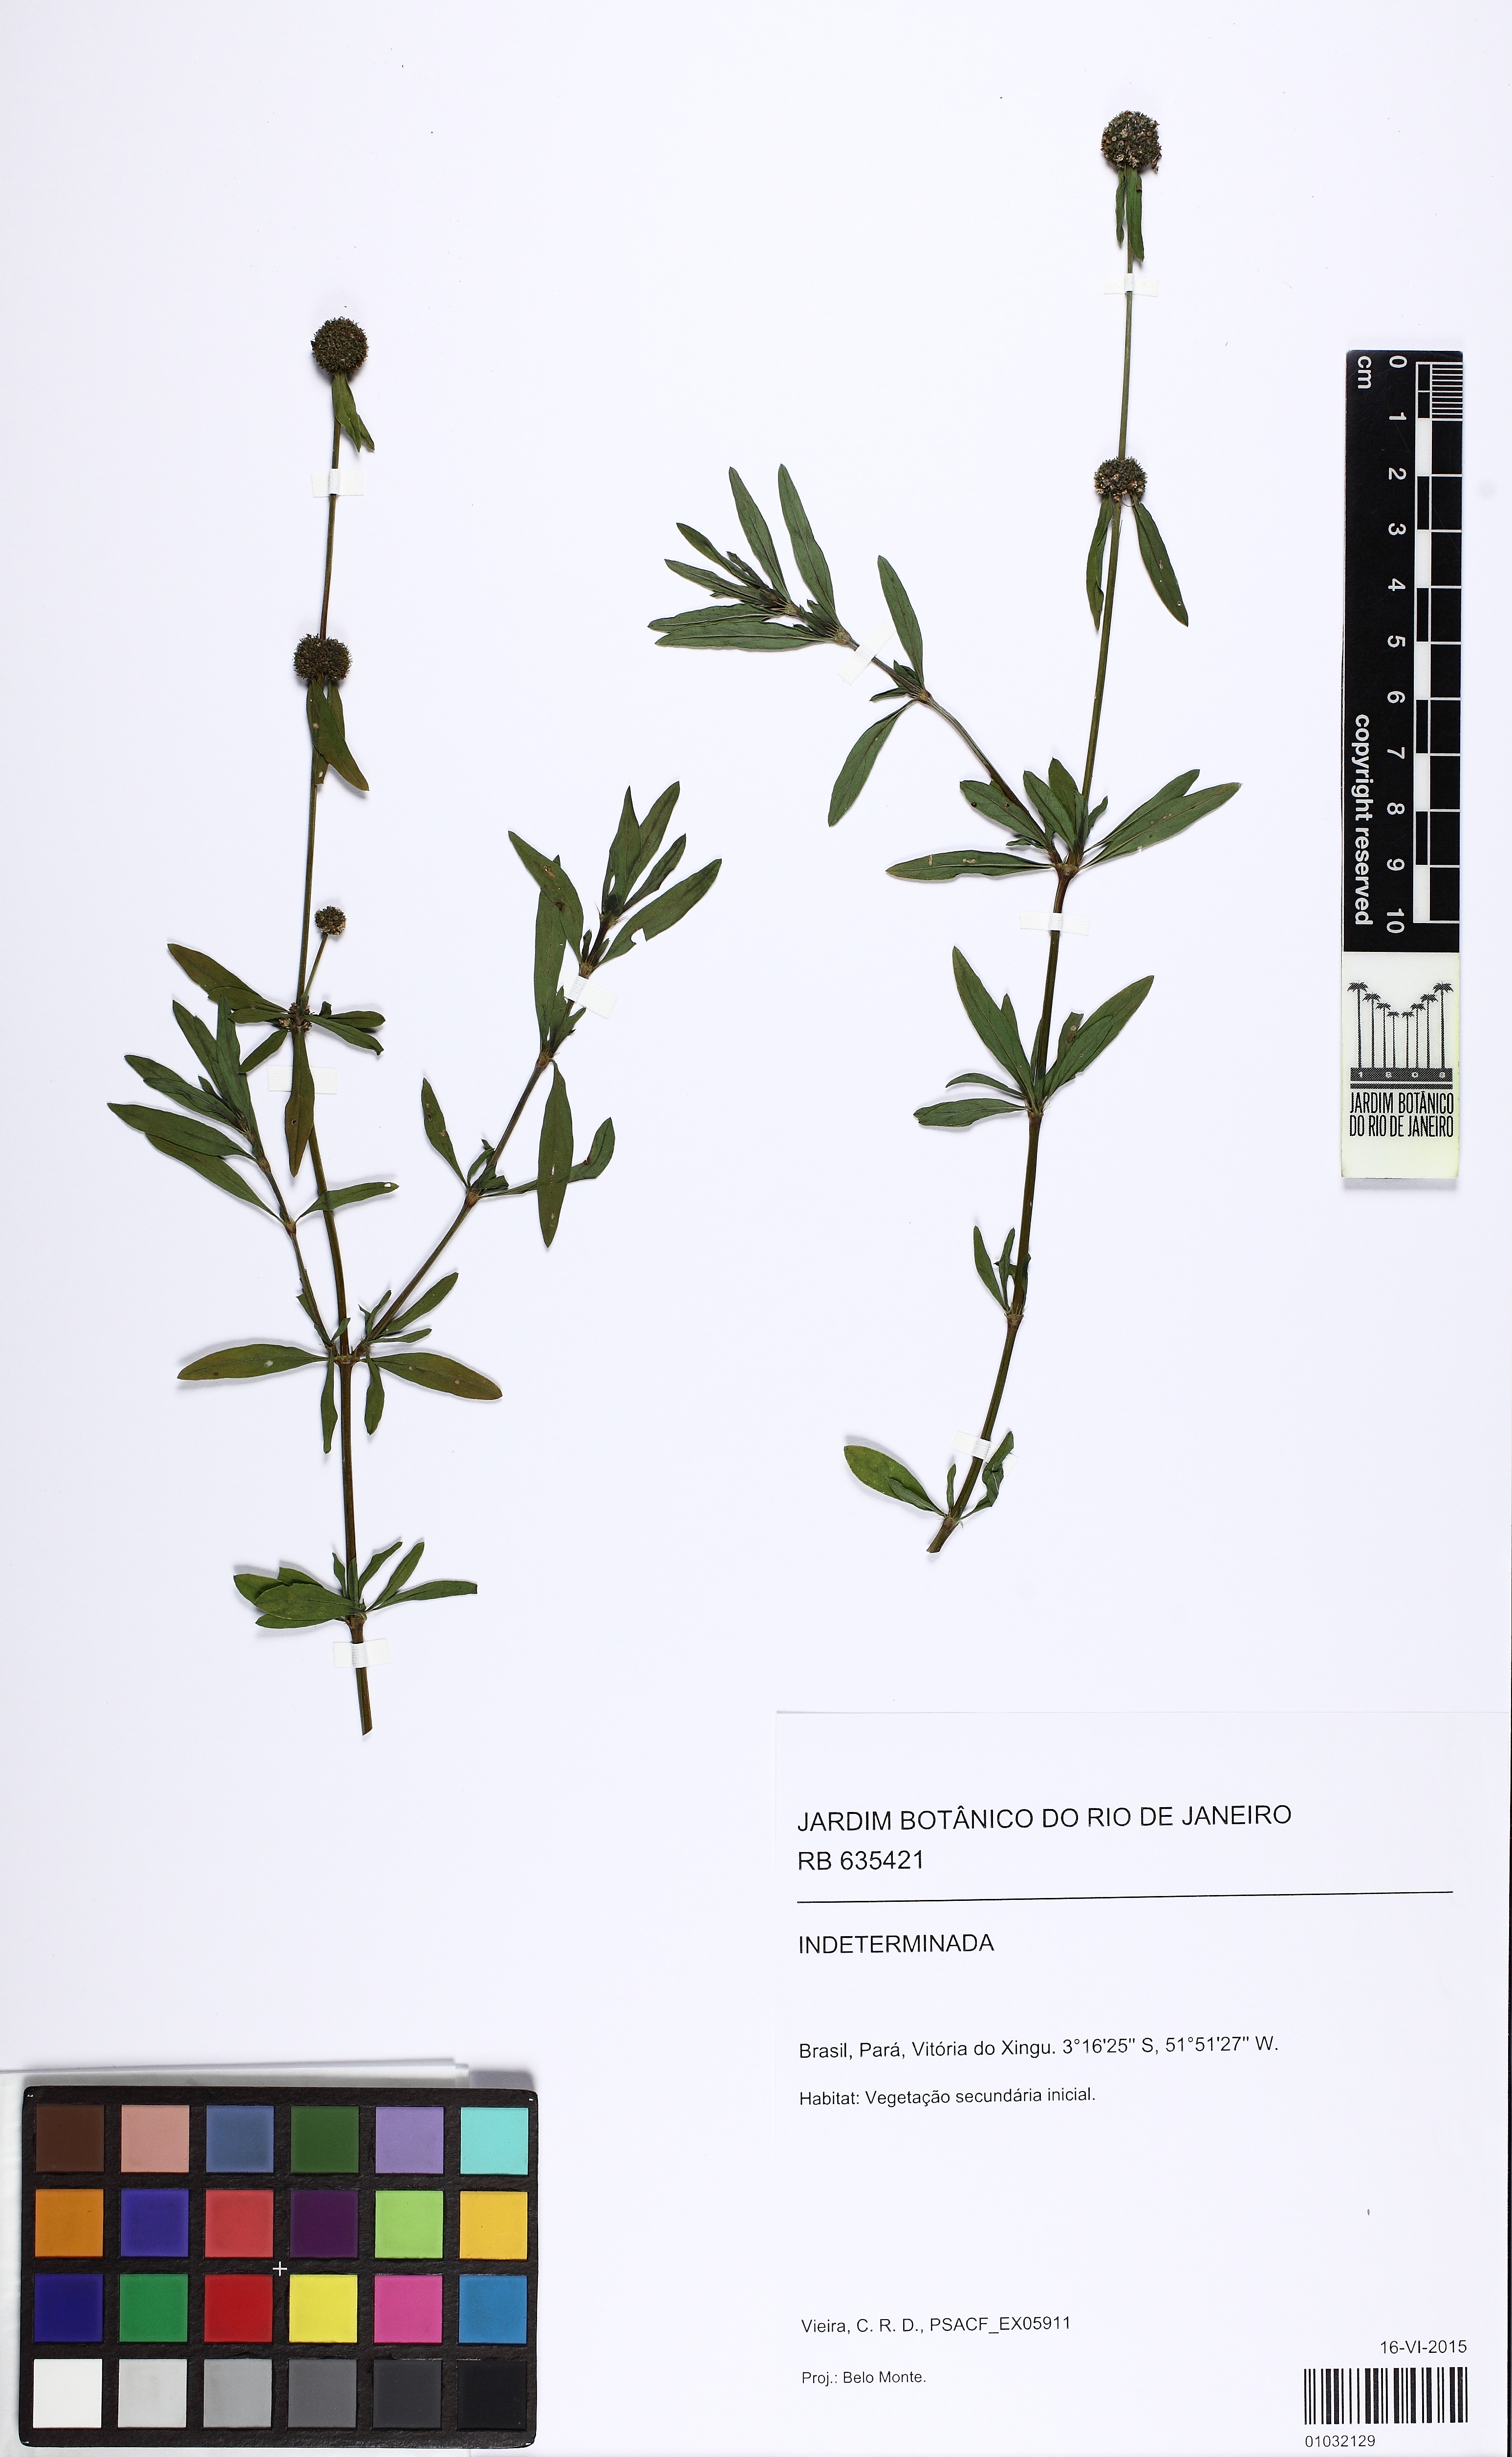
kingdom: Plantae
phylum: Tracheophyta
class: Magnoliopsida
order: Gentianales
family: Rubiaceae
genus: Spermacoce
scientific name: Spermacoce
